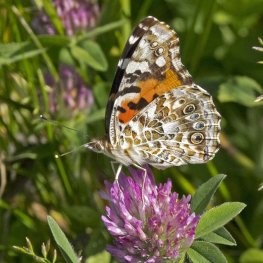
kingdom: Animalia
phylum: Arthropoda
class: Insecta
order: Lepidoptera
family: Nymphalidae
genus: Vanessa
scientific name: Vanessa cardui
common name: Painted Lady
